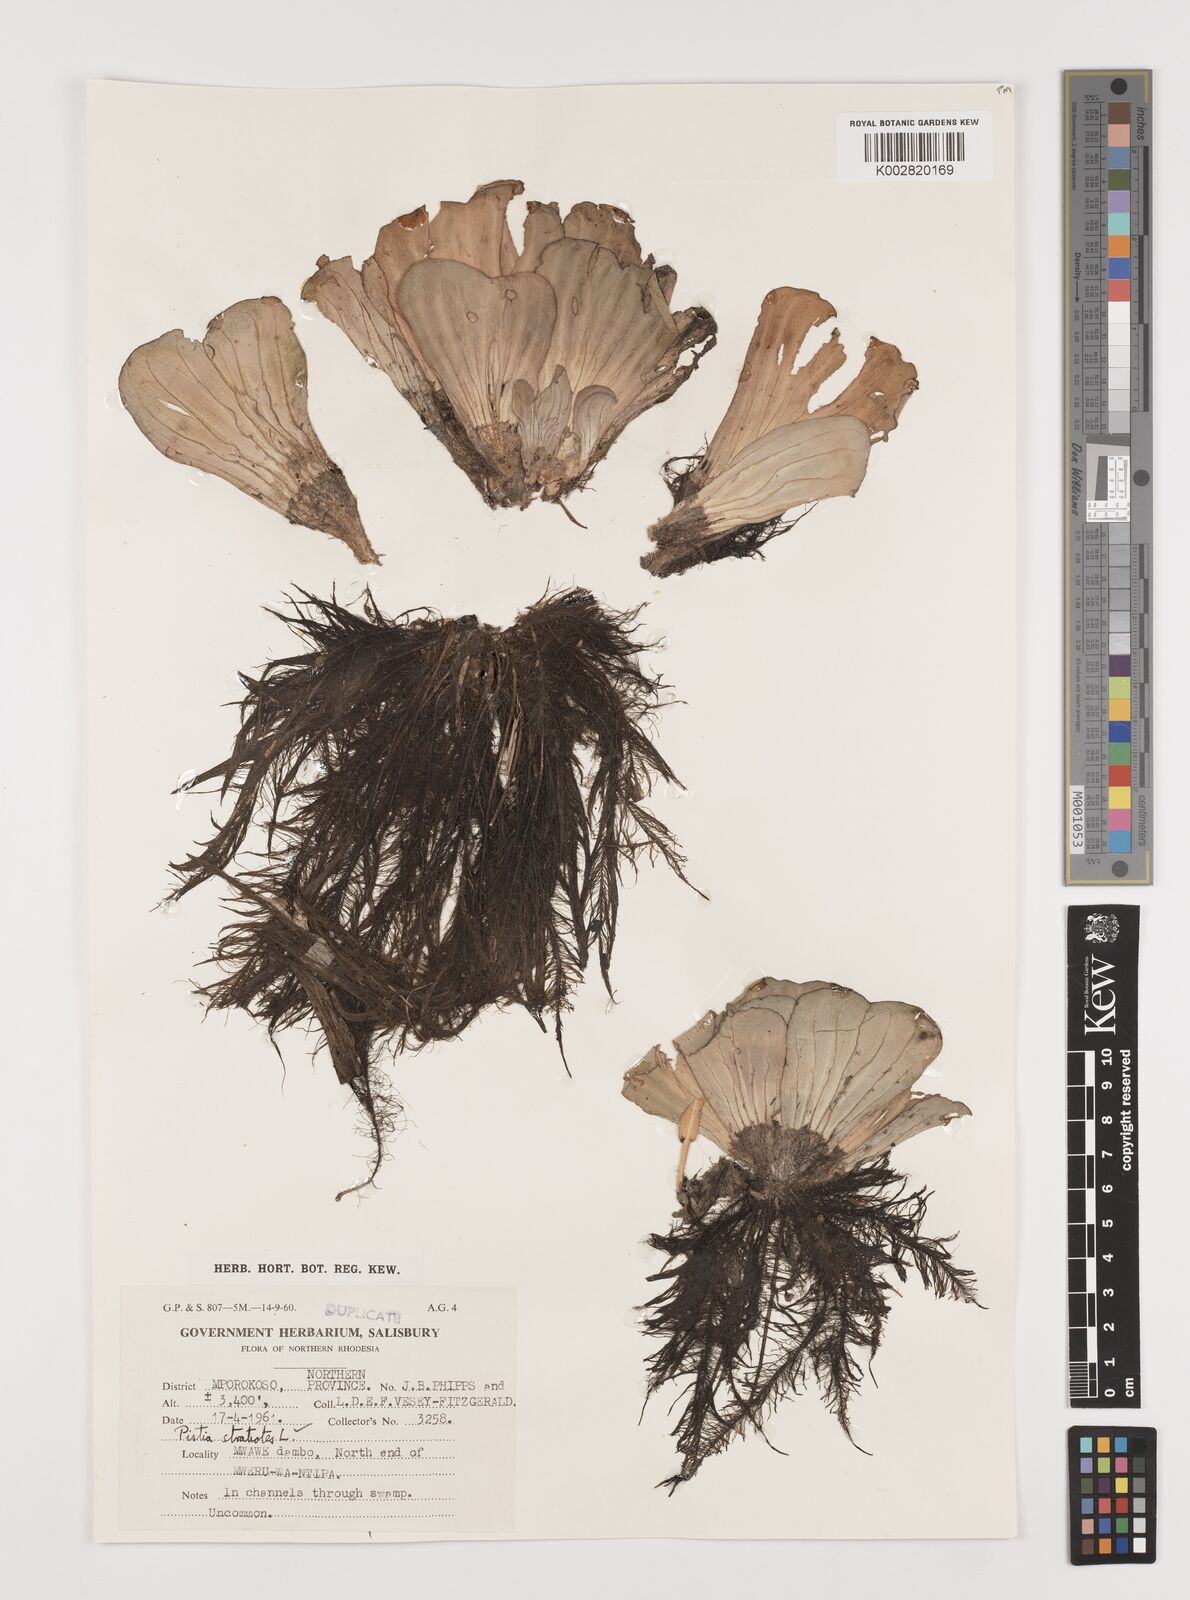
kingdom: Plantae
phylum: Tracheophyta
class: Liliopsida
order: Alismatales
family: Araceae
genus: Pistia
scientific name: Pistia stratiotes
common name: Water lettuce
